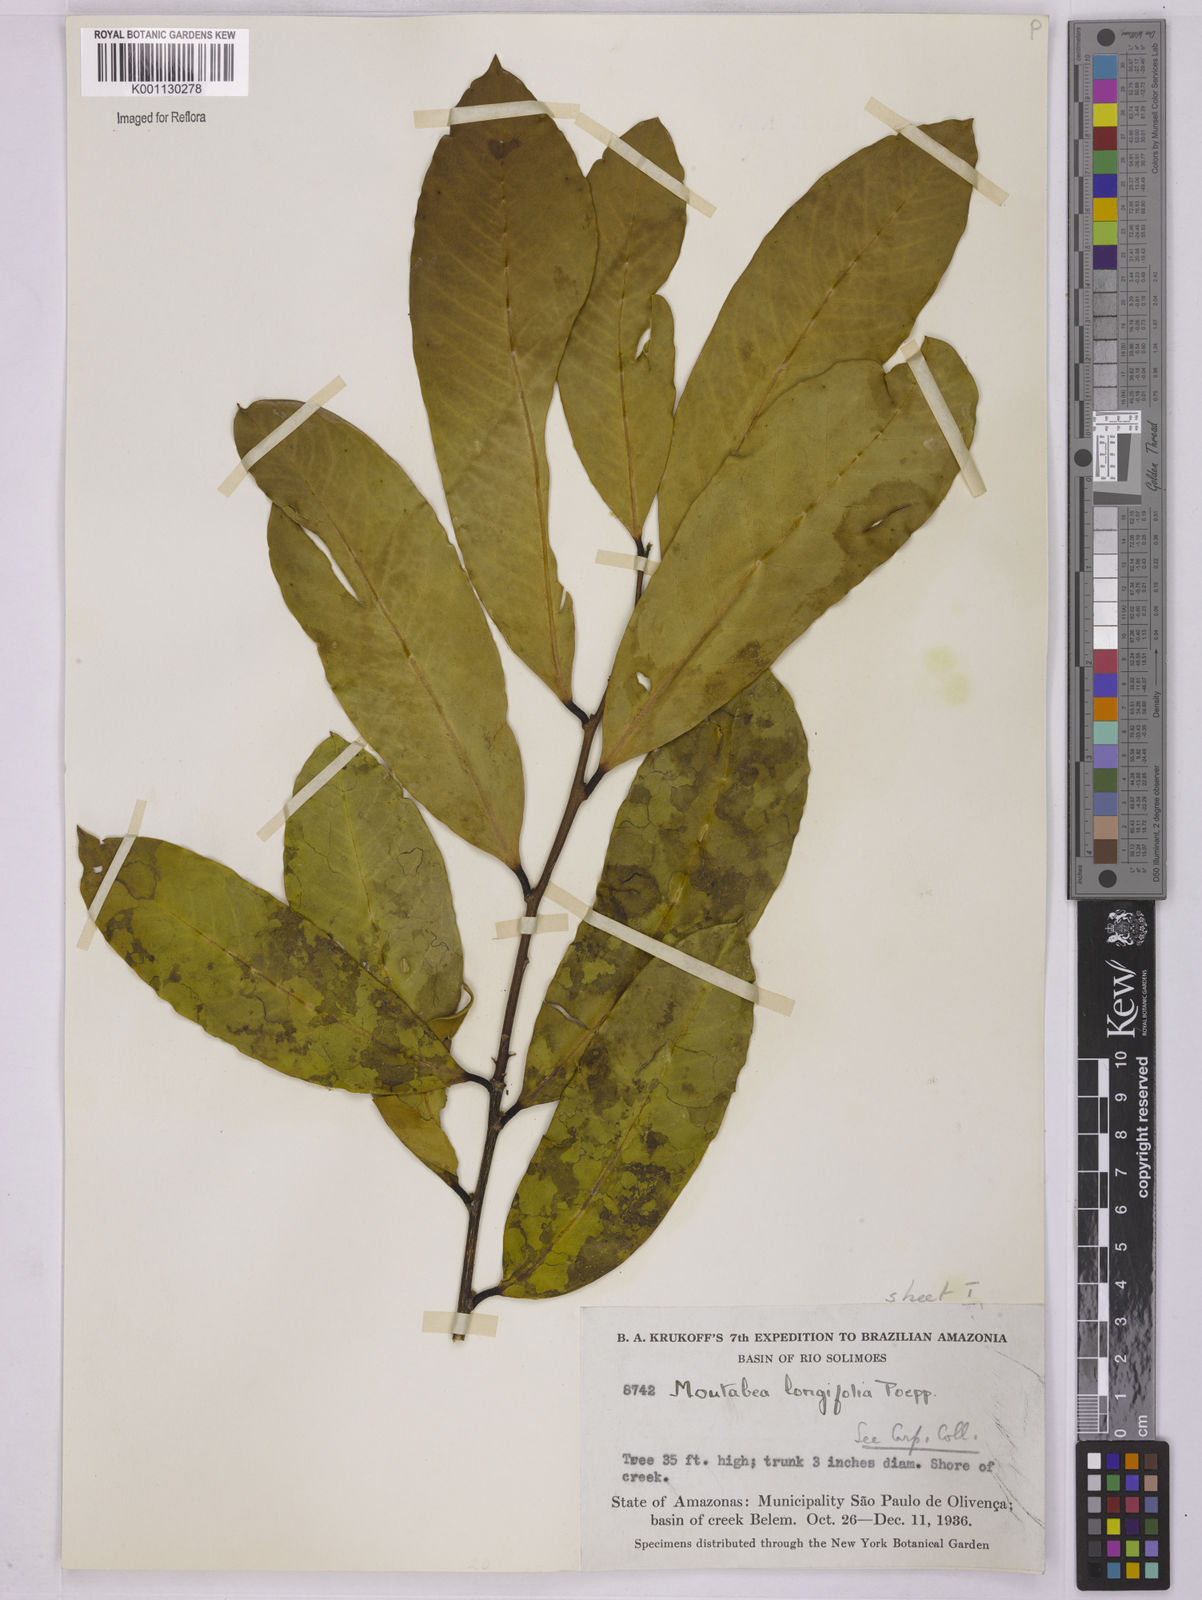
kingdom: Plantae
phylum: Tracheophyta
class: Magnoliopsida
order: Fabales
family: Polygalaceae
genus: Moutabea
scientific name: Moutabea aculeata
